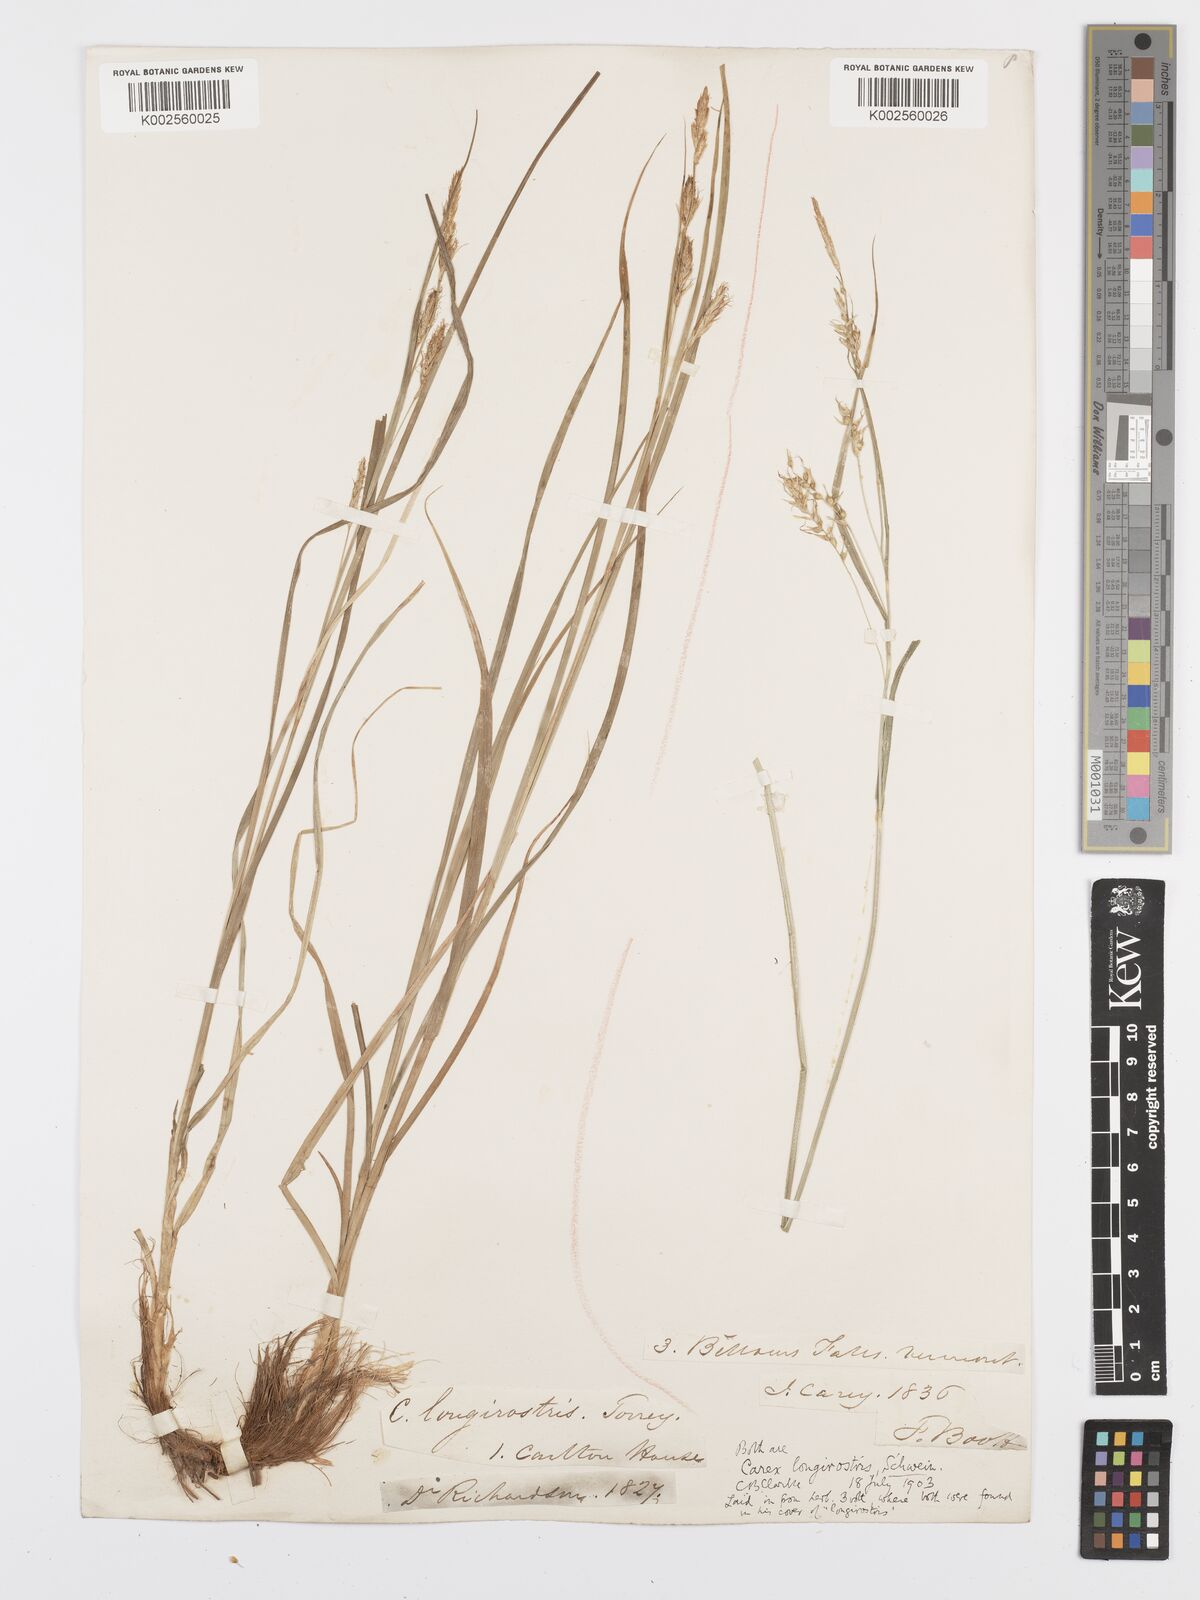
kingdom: Plantae
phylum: Tracheophyta
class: Liliopsida
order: Poales
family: Cyperaceae
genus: Carex
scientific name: Carex sprengelii
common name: Long-beaked sedge
